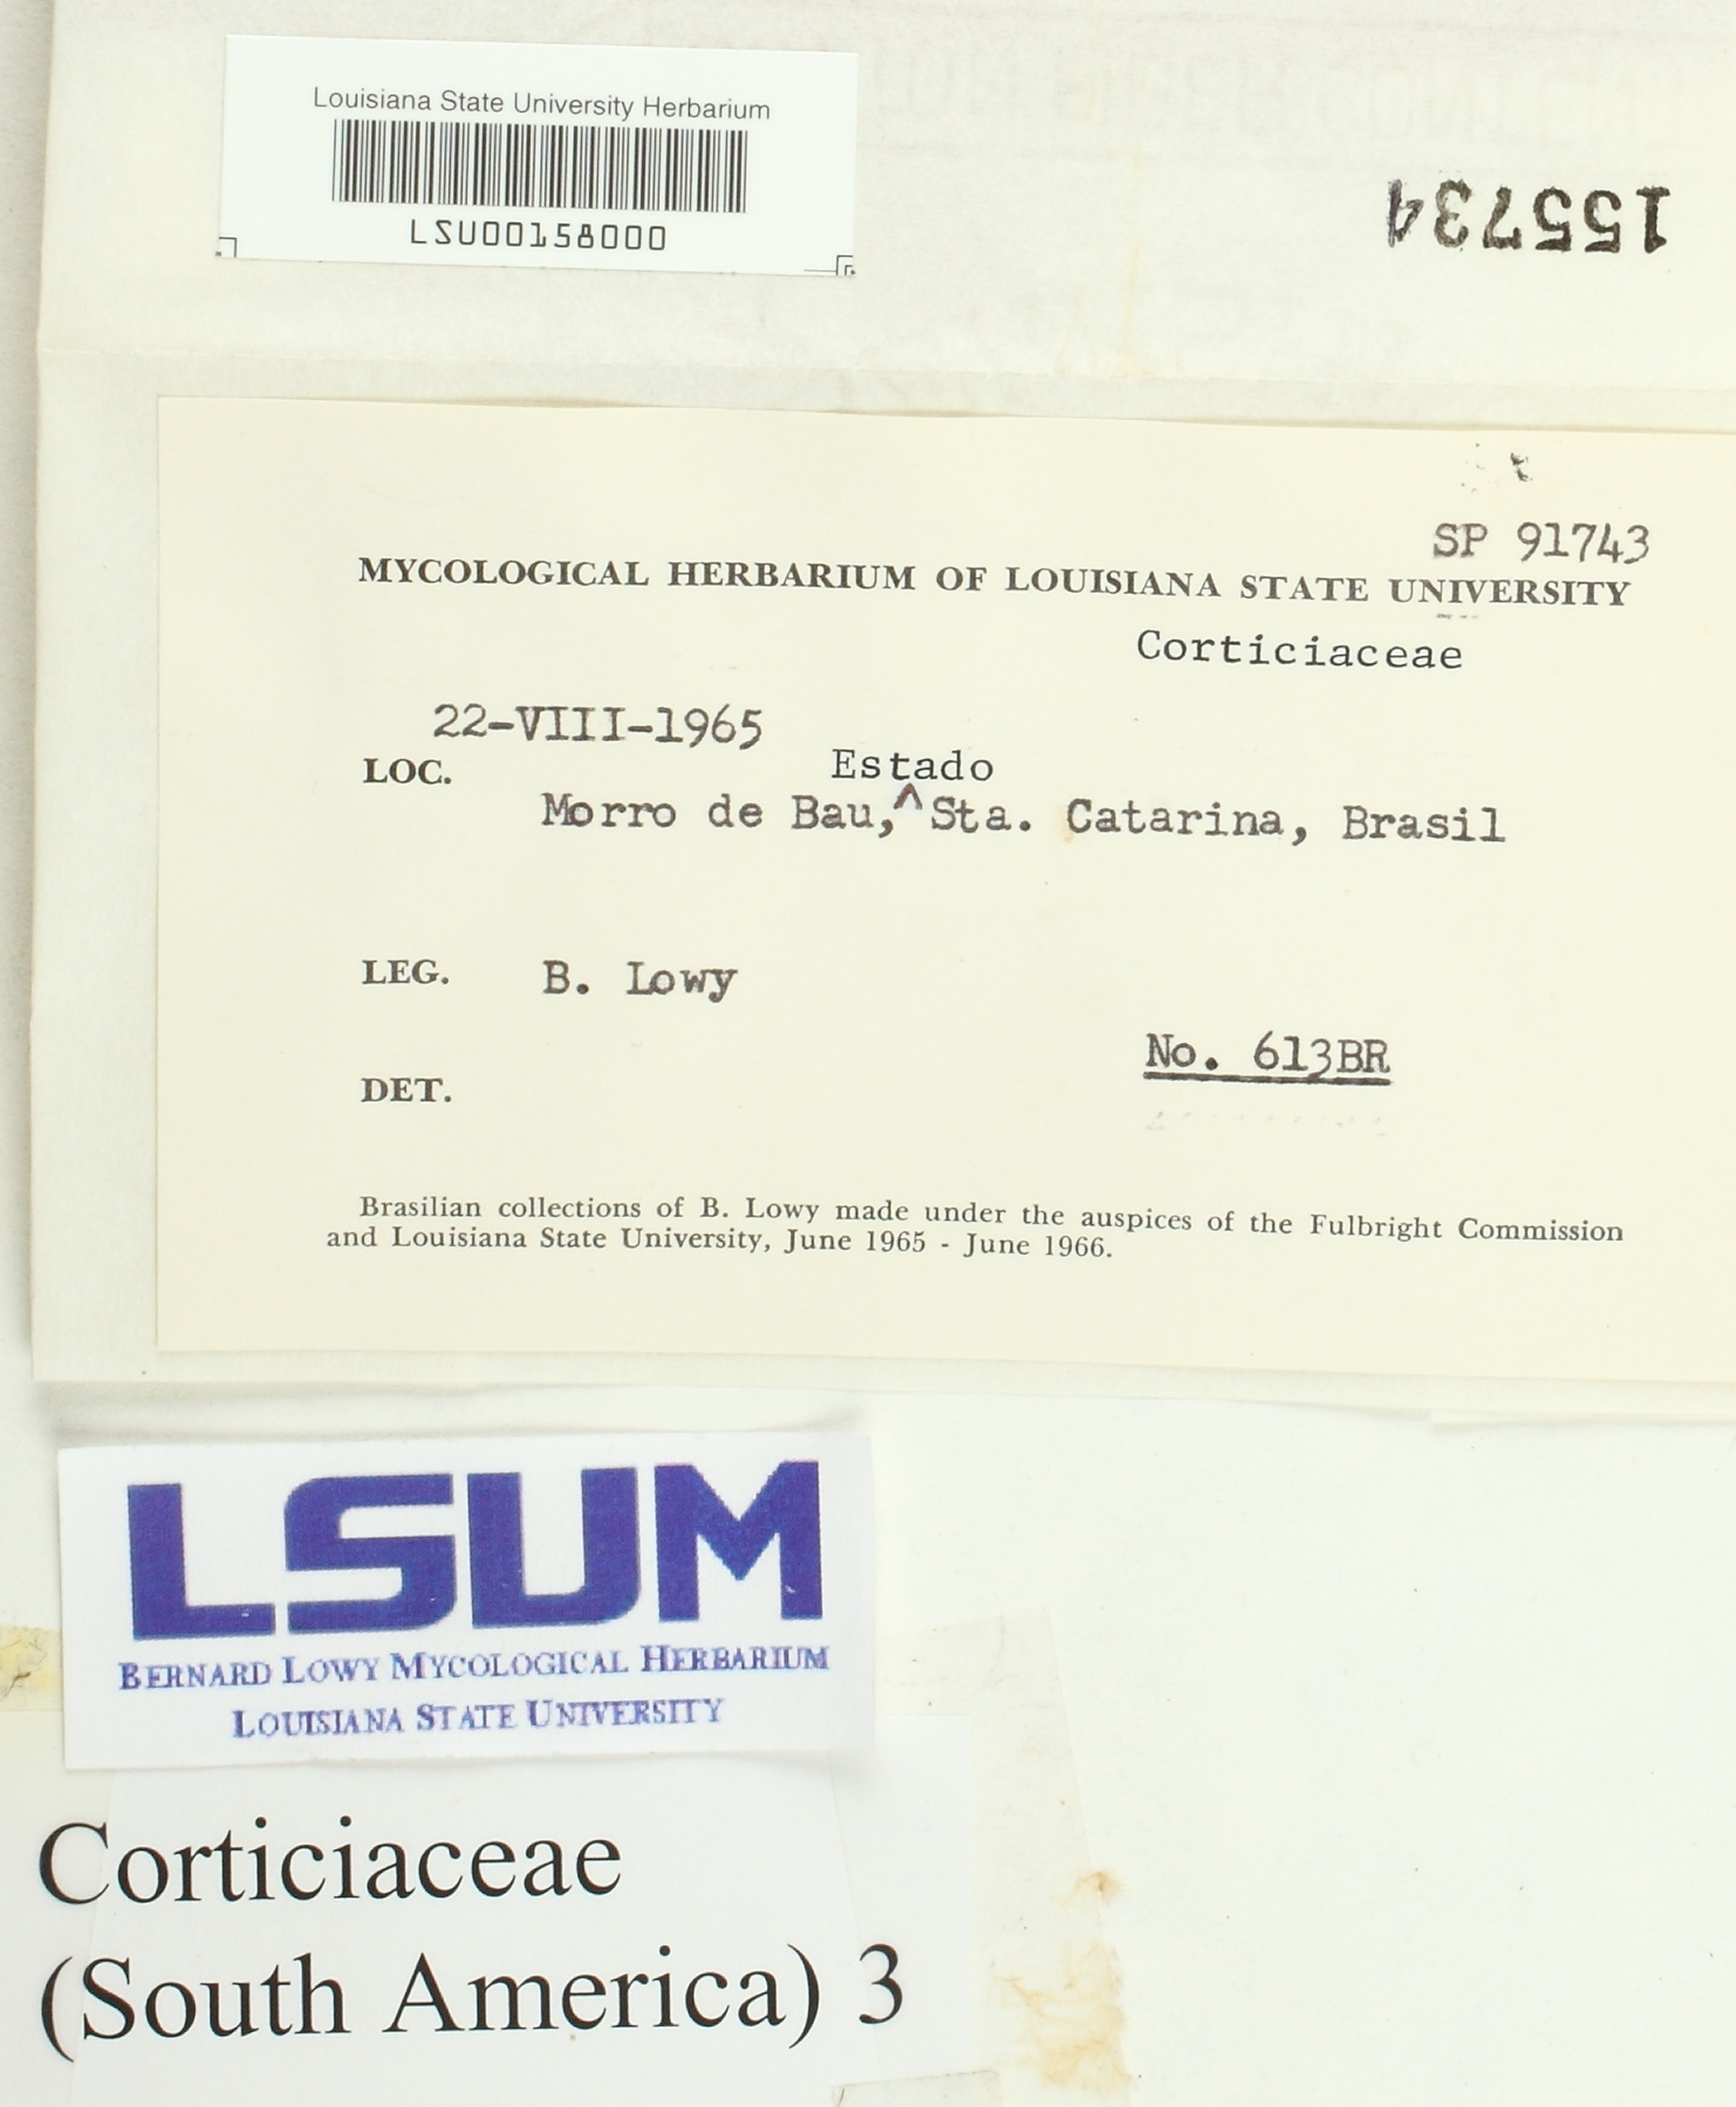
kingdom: Fungi
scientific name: Fungi
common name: Fungi
